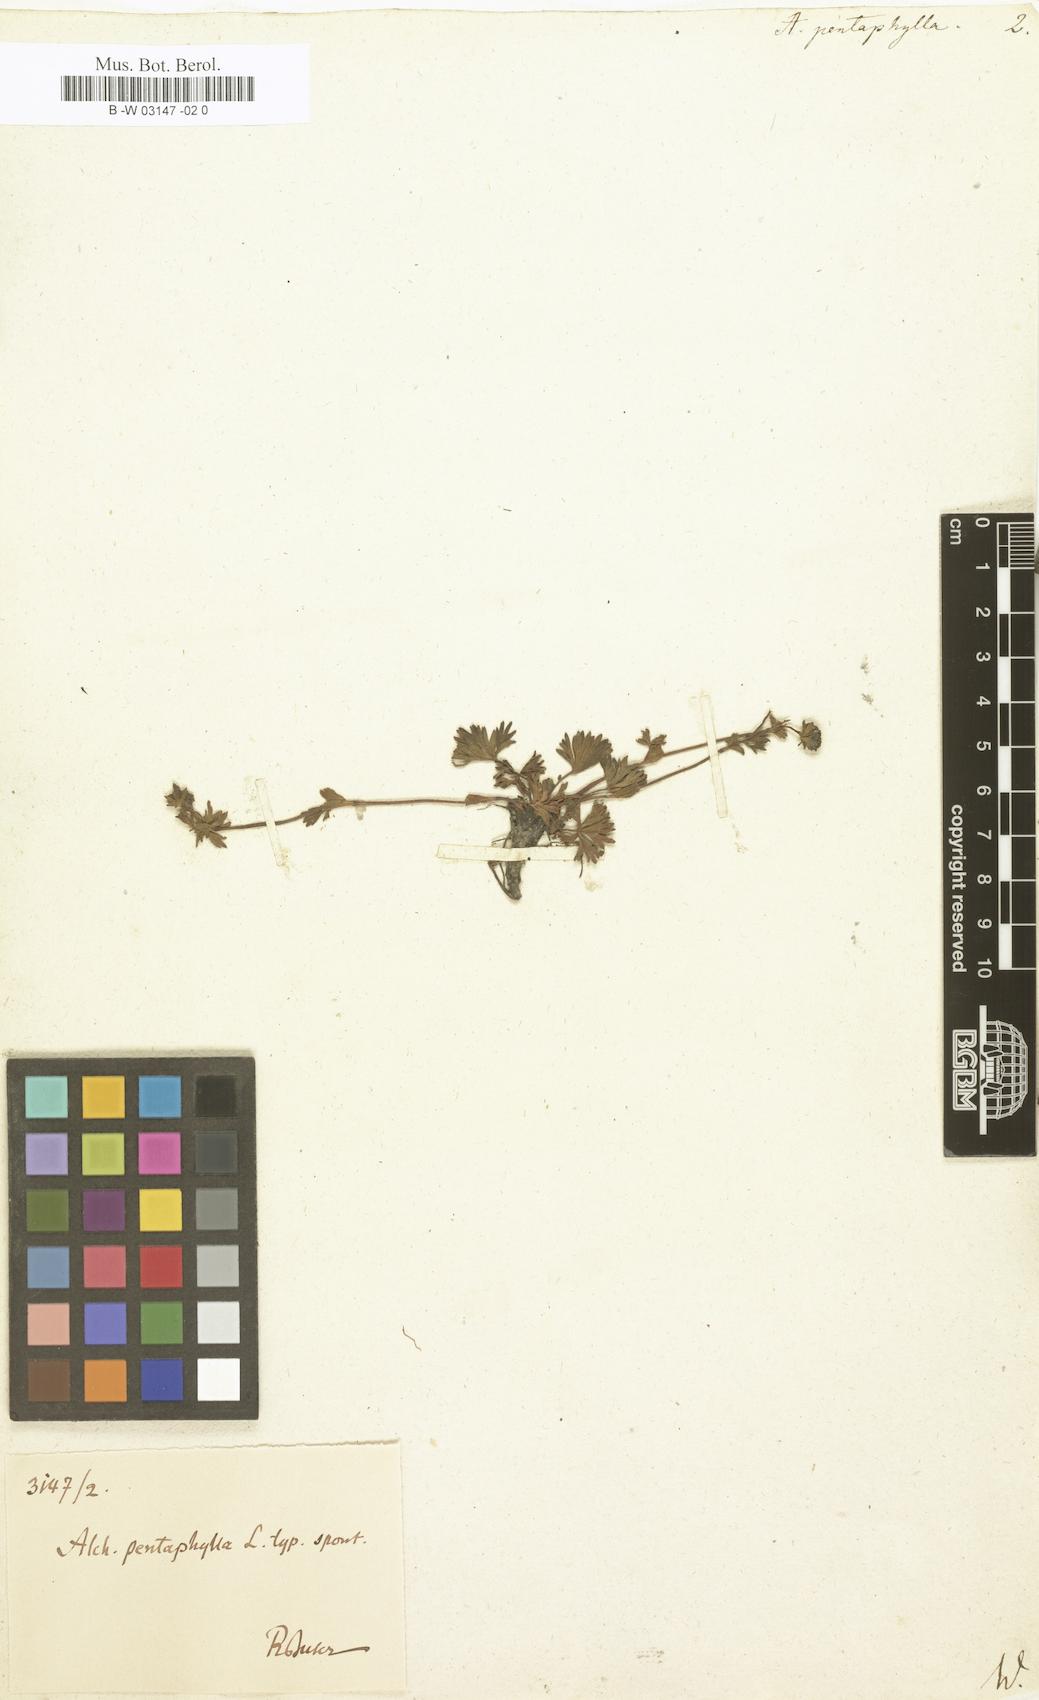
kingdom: Plantae
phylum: Tracheophyta
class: Magnoliopsida
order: Rosales
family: Rosaceae
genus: Alchemilla
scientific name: Alchemilla pentaphyllea
